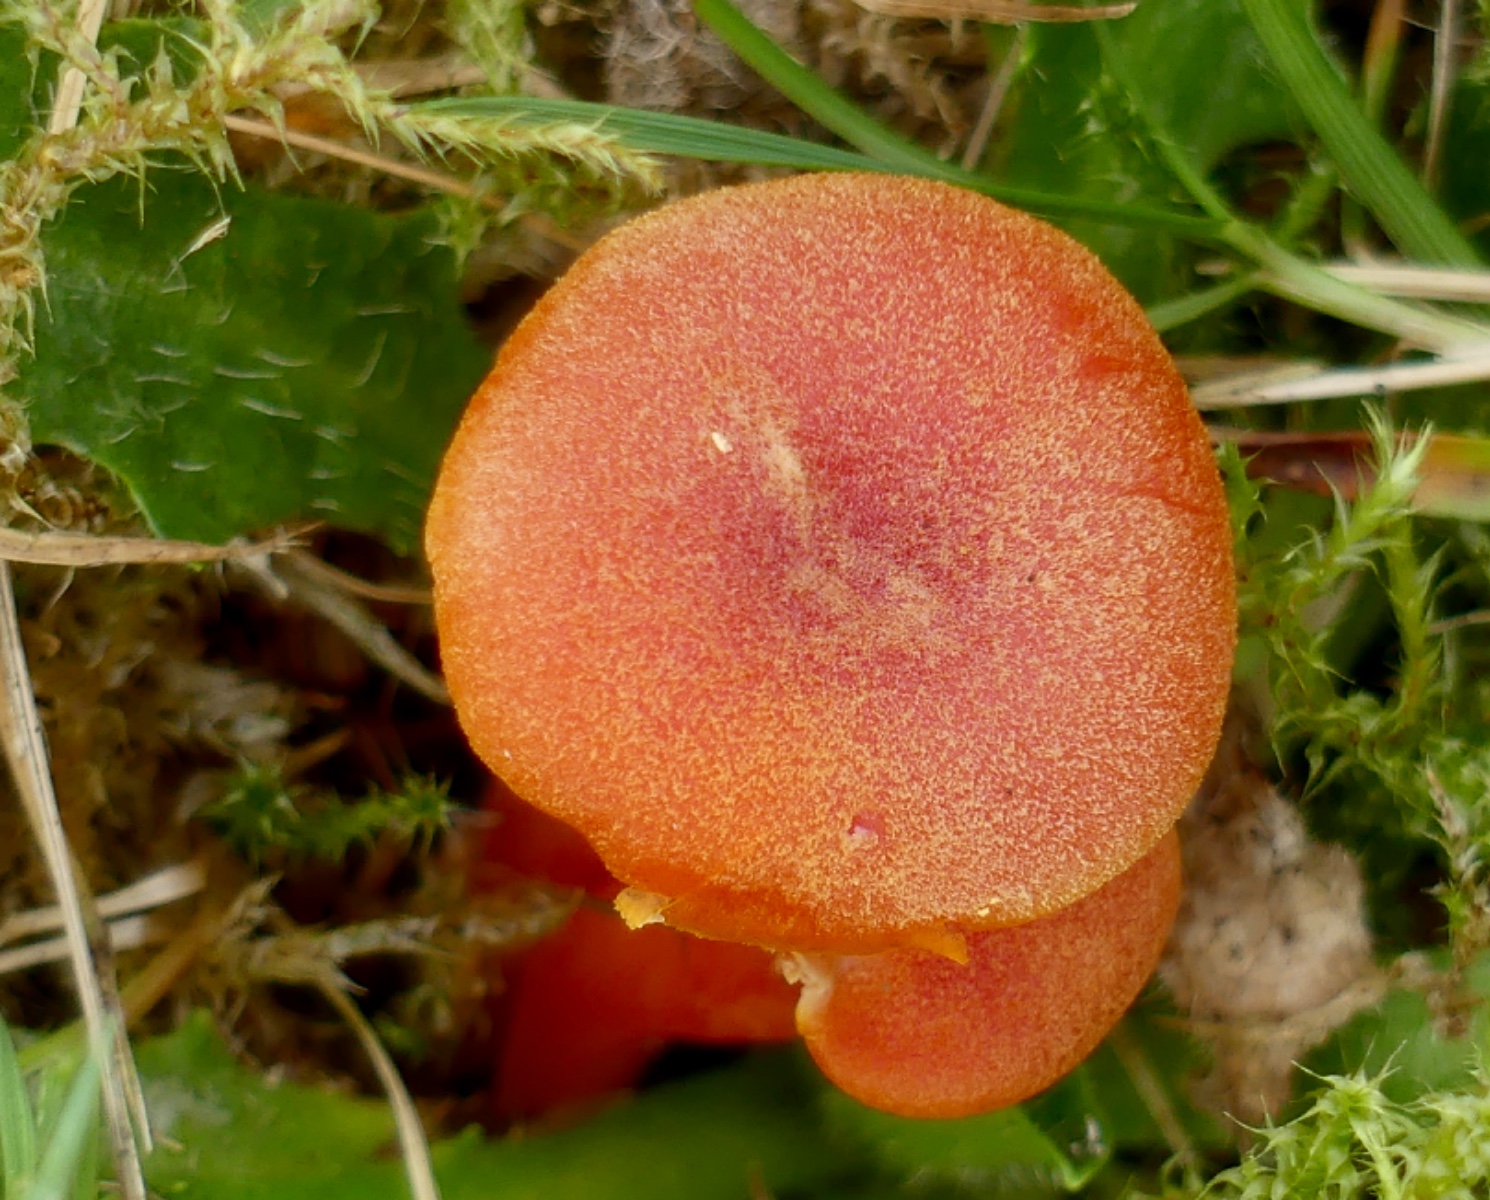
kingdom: Fungi
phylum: Basidiomycota
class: Agaricomycetes
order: Agaricales
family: Hygrophoraceae
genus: Hygrocybe
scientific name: Hygrocybe miniata
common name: mønje-vokshat
